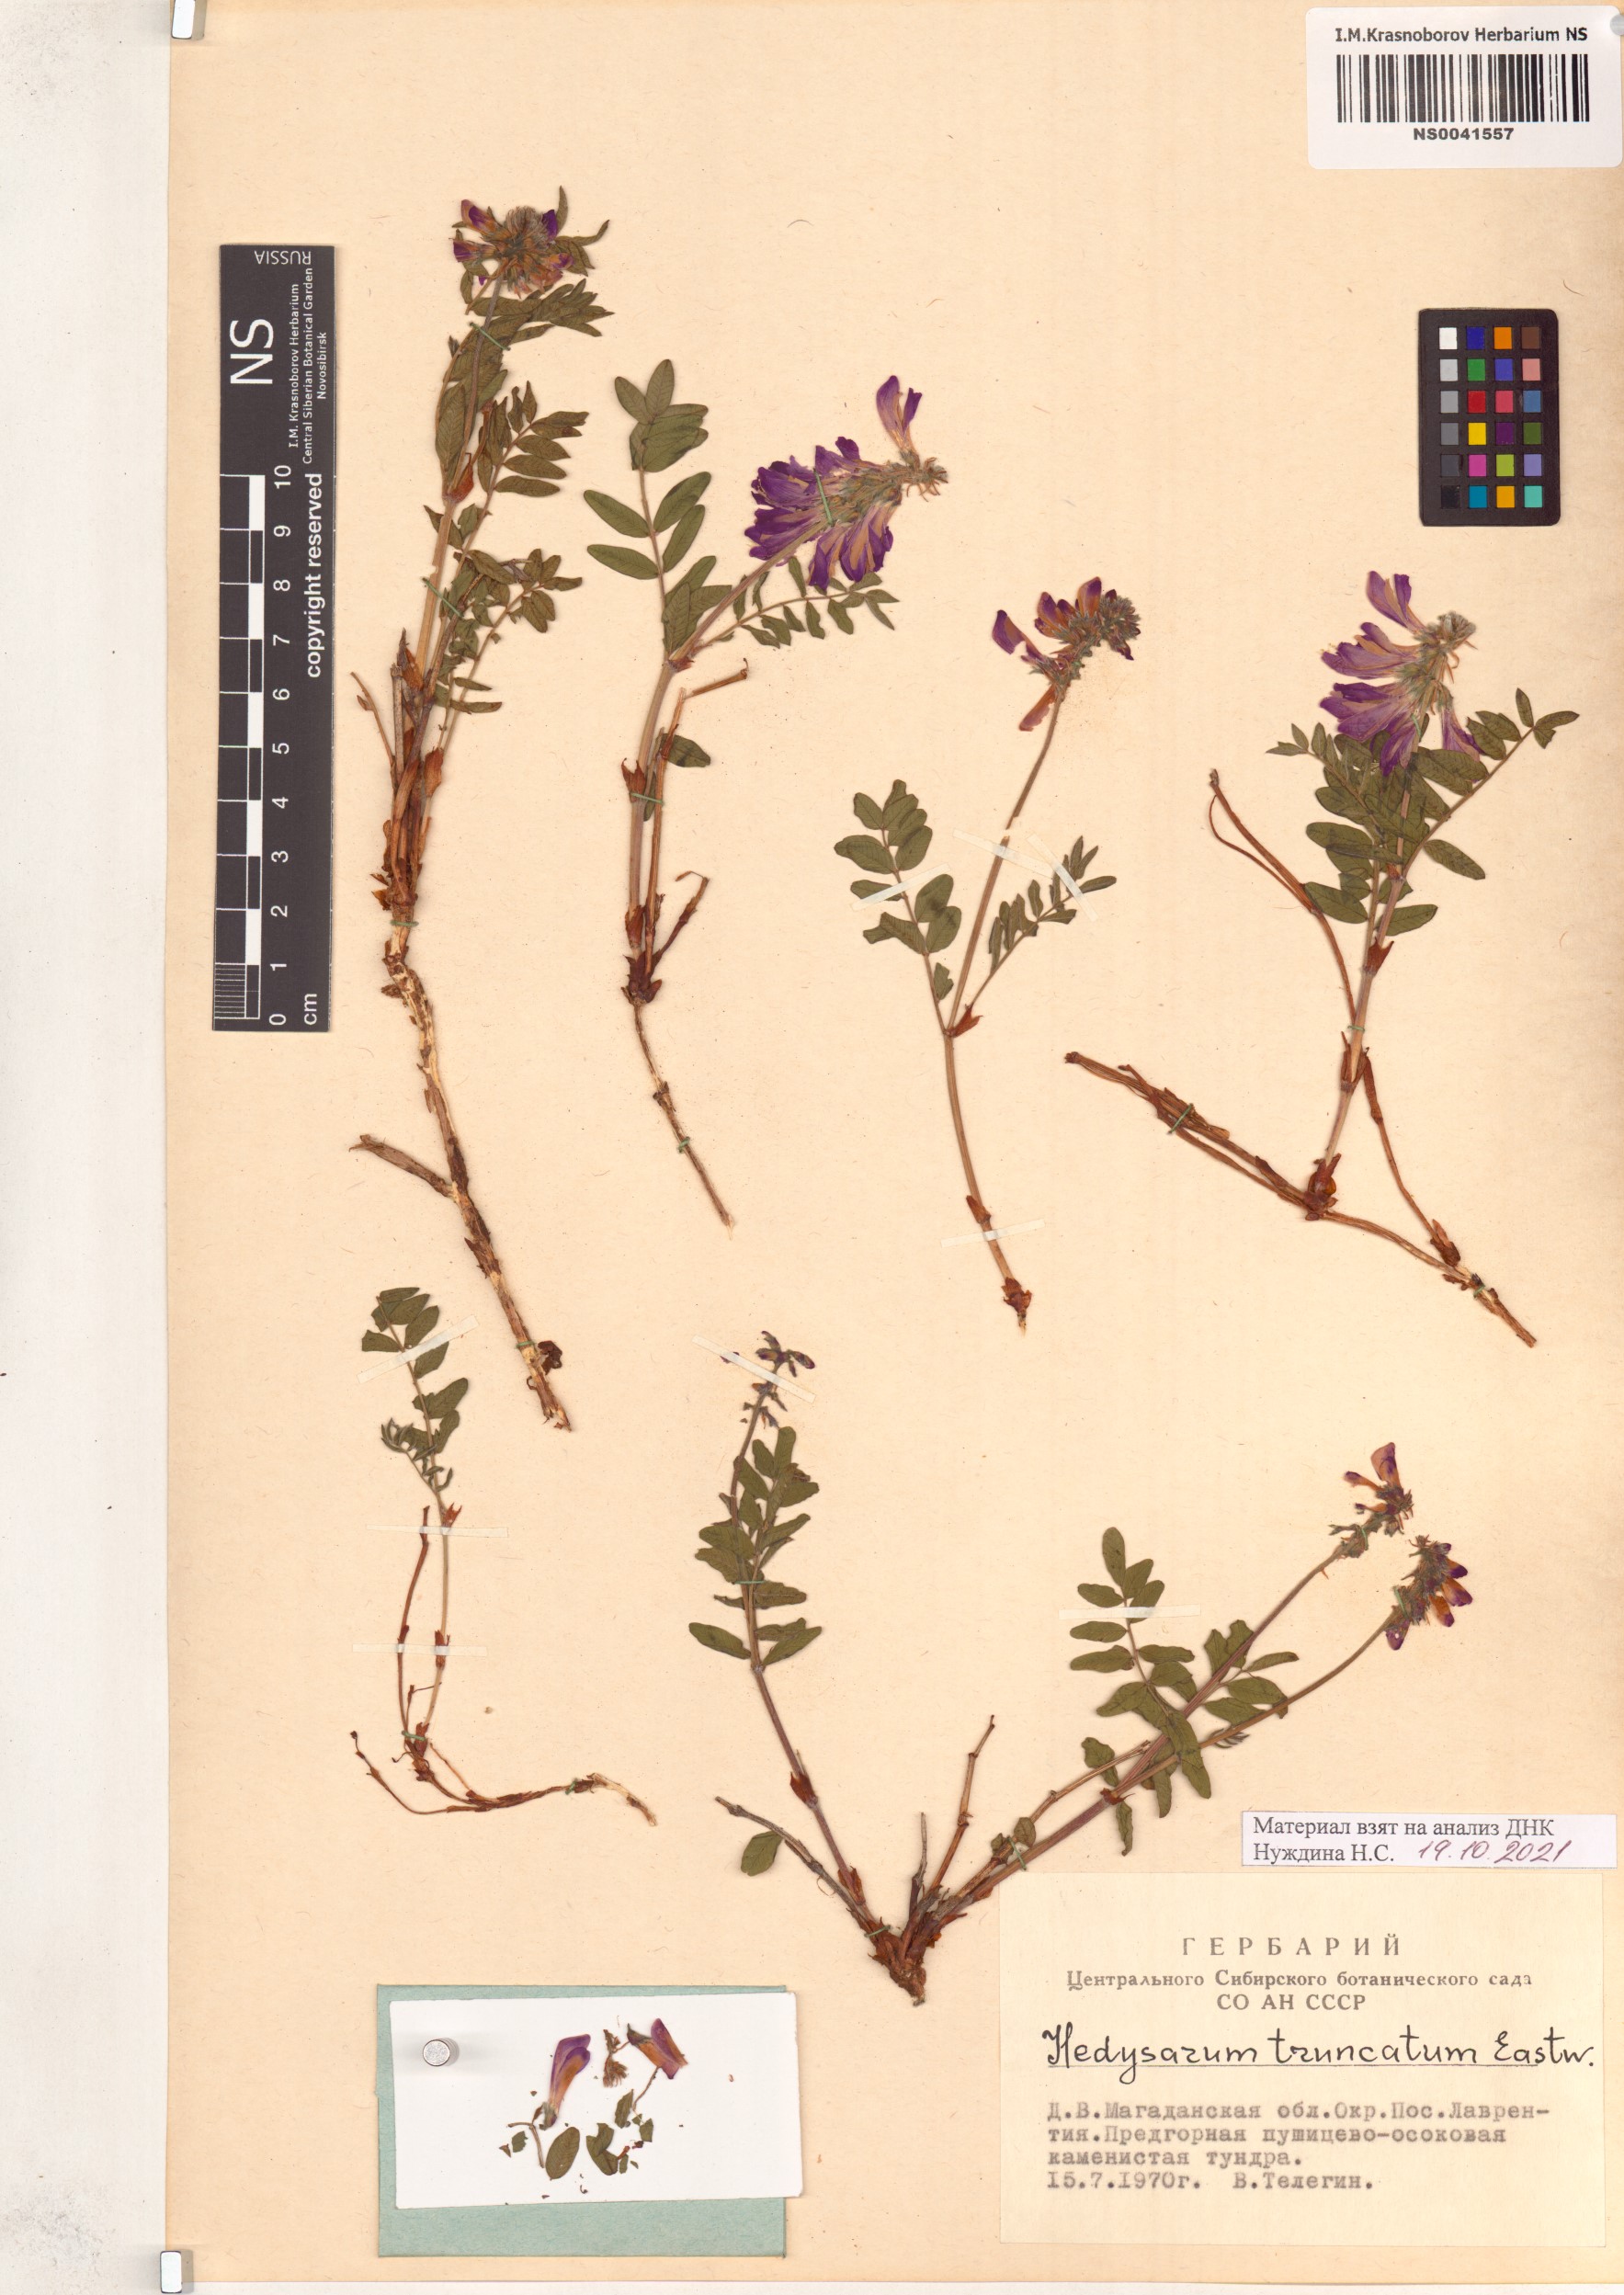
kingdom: Plantae
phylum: Tracheophyta
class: Magnoliopsida
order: Fabales
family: Fabaceae
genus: Hedysarum
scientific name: Hedysarum truncatum
